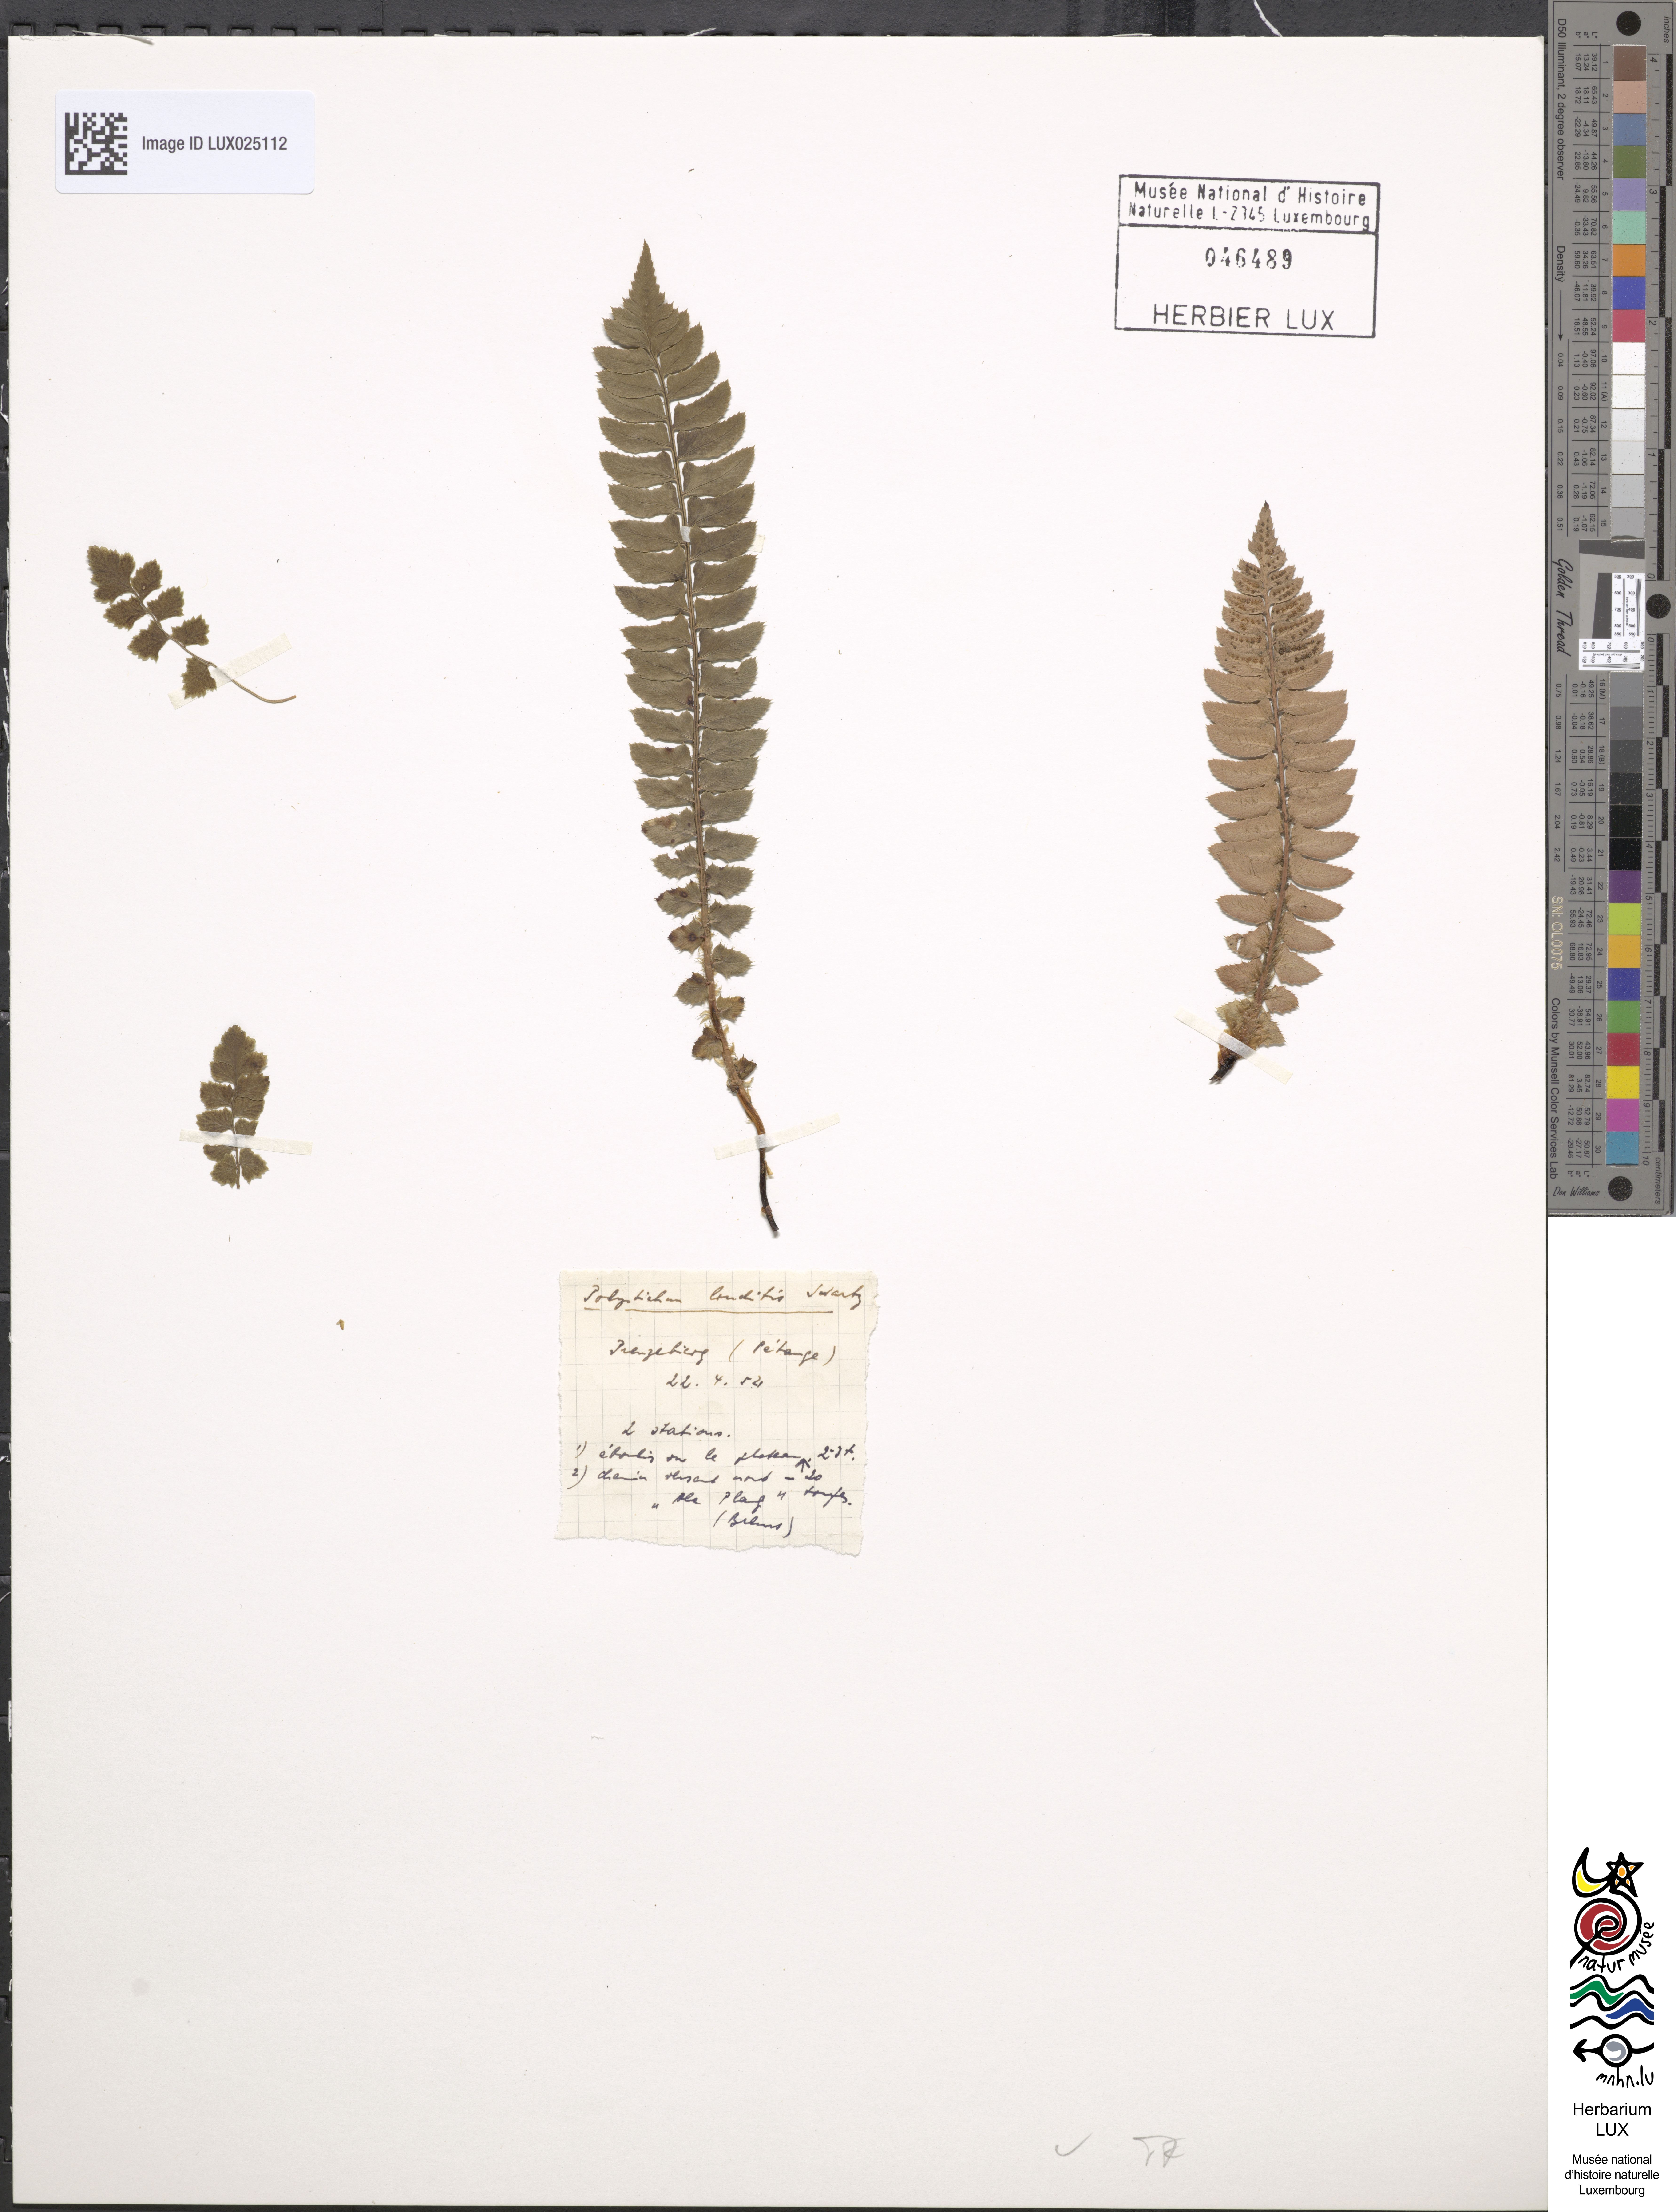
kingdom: Plantae
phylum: Tracheophyta
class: Polypodiopsida
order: Polypodiales
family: Dryopteridaceae
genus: Polystichum
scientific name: Polystichum lonchitis
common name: Holly fern
